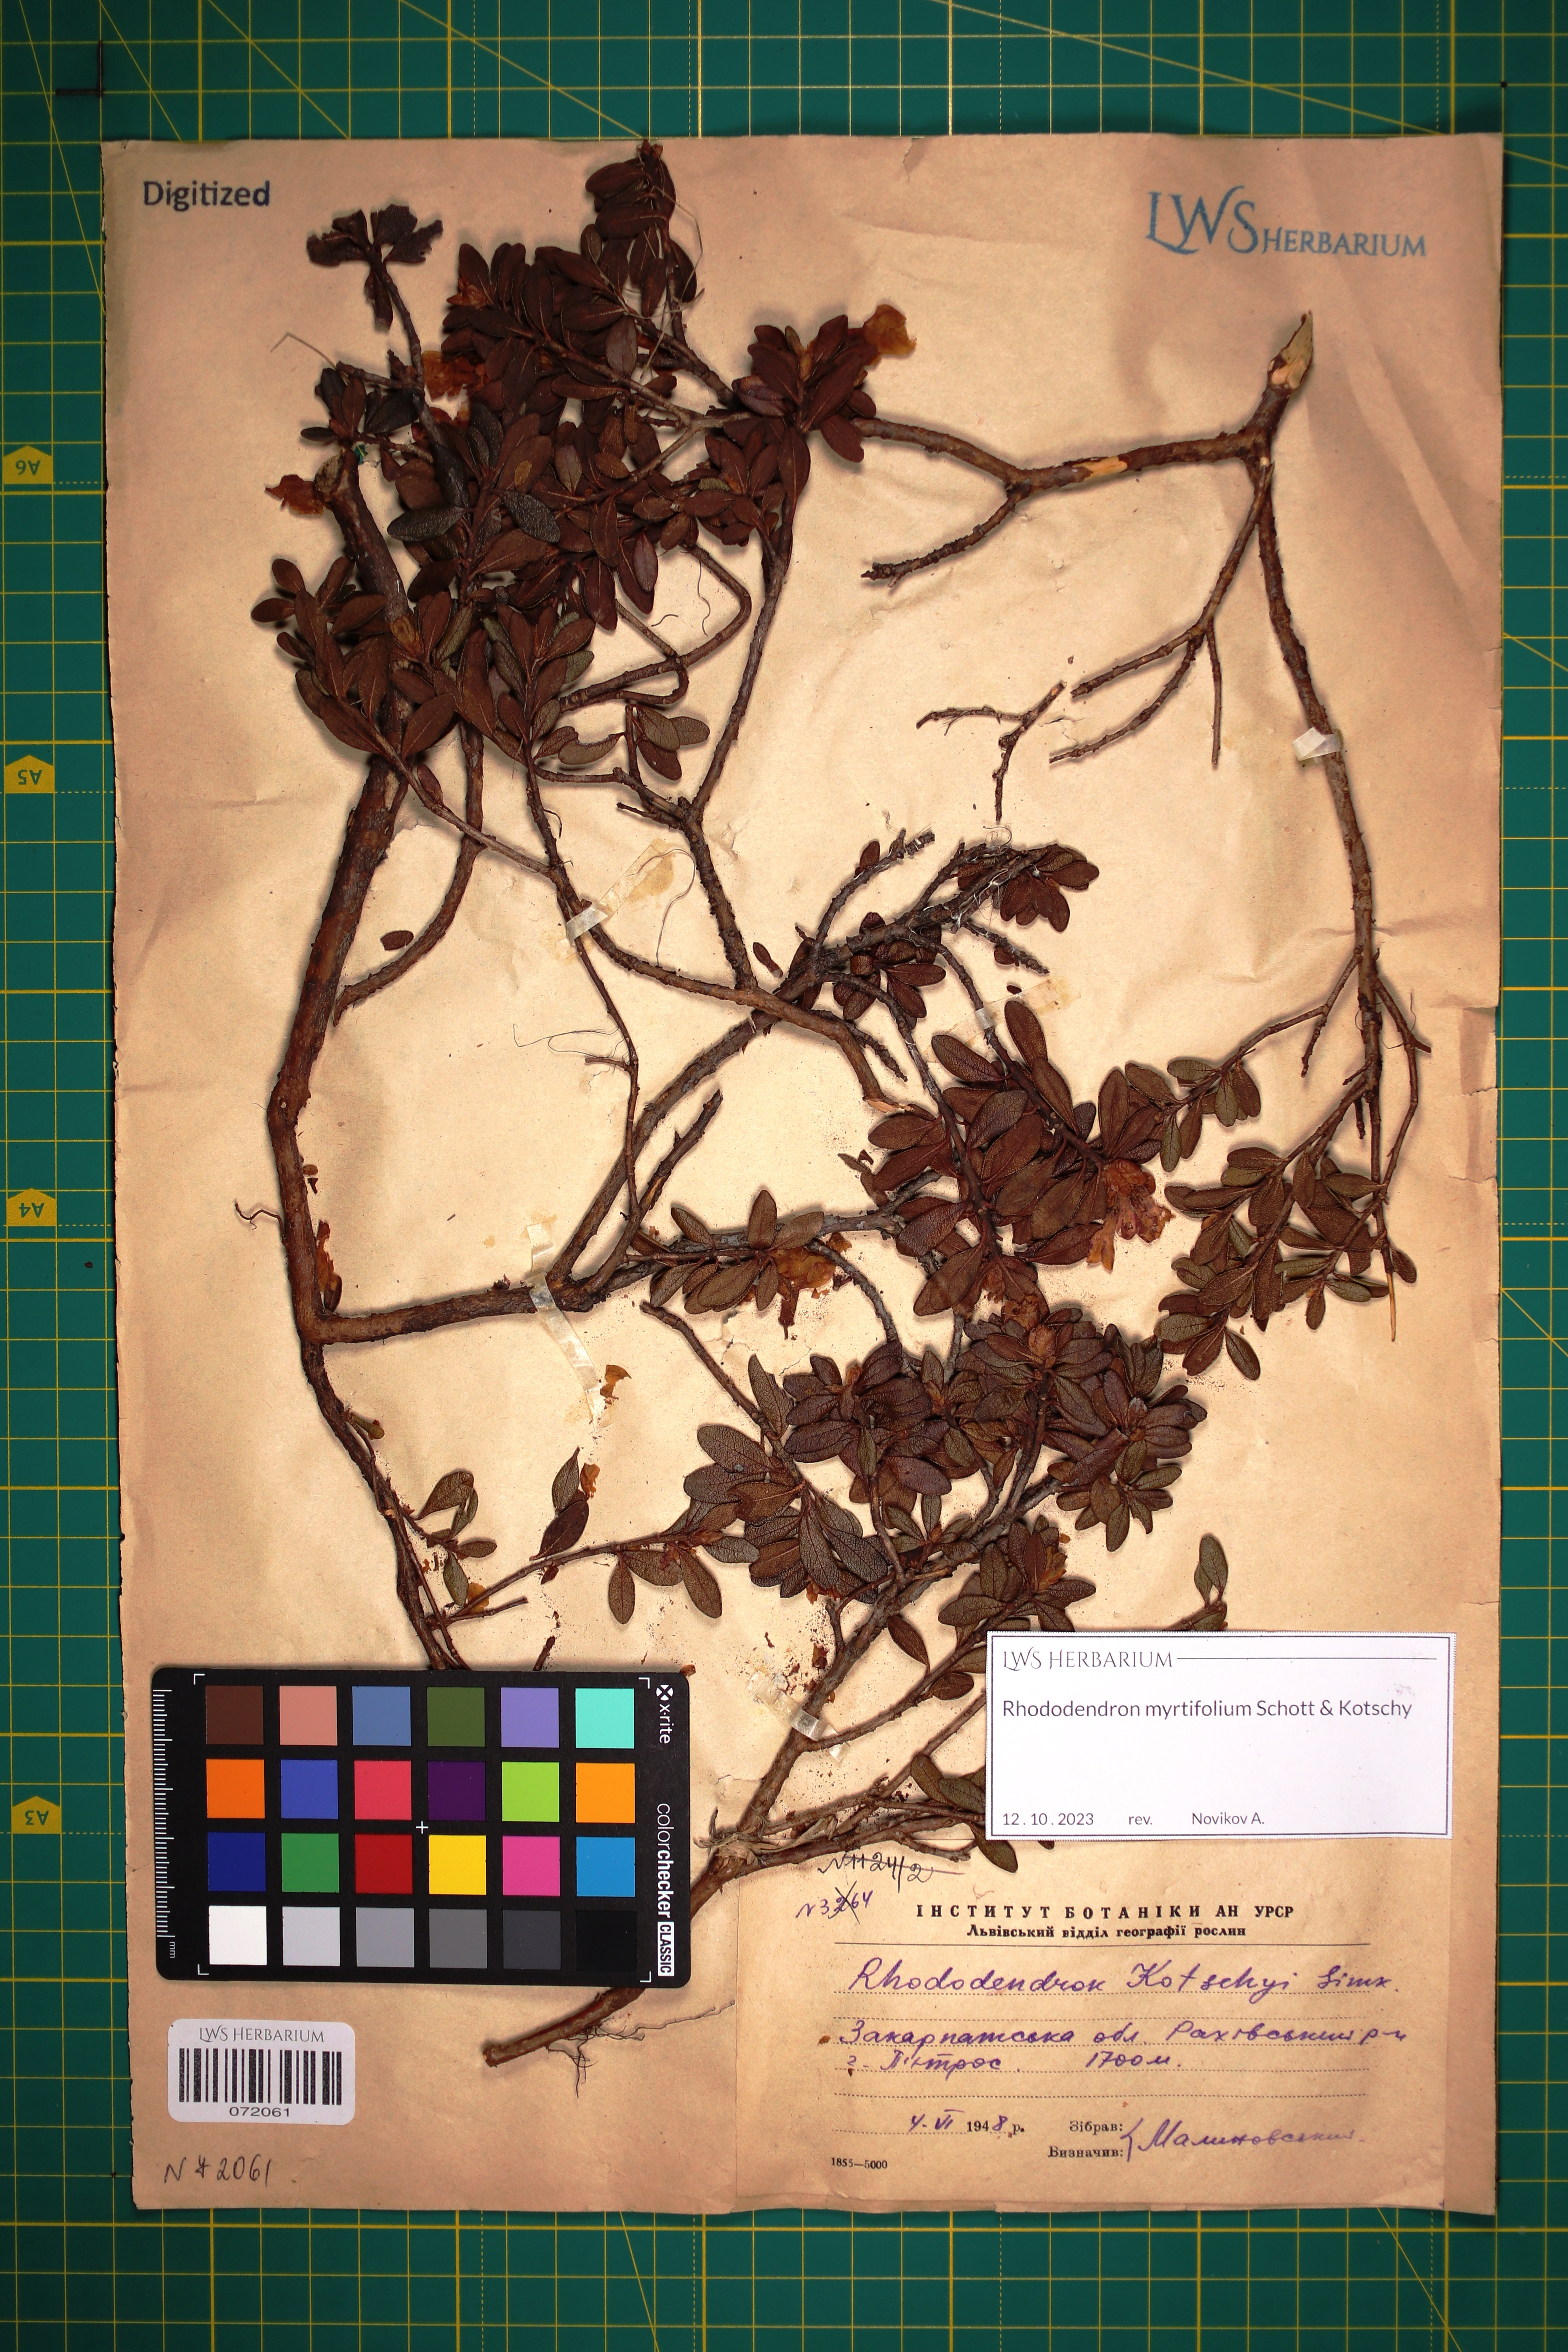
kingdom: Plantae
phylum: Tracheophyta
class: Magnoliopsida
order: Ericales
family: Ericaceae
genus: Rhododendron
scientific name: Rhododendron kotschyi
